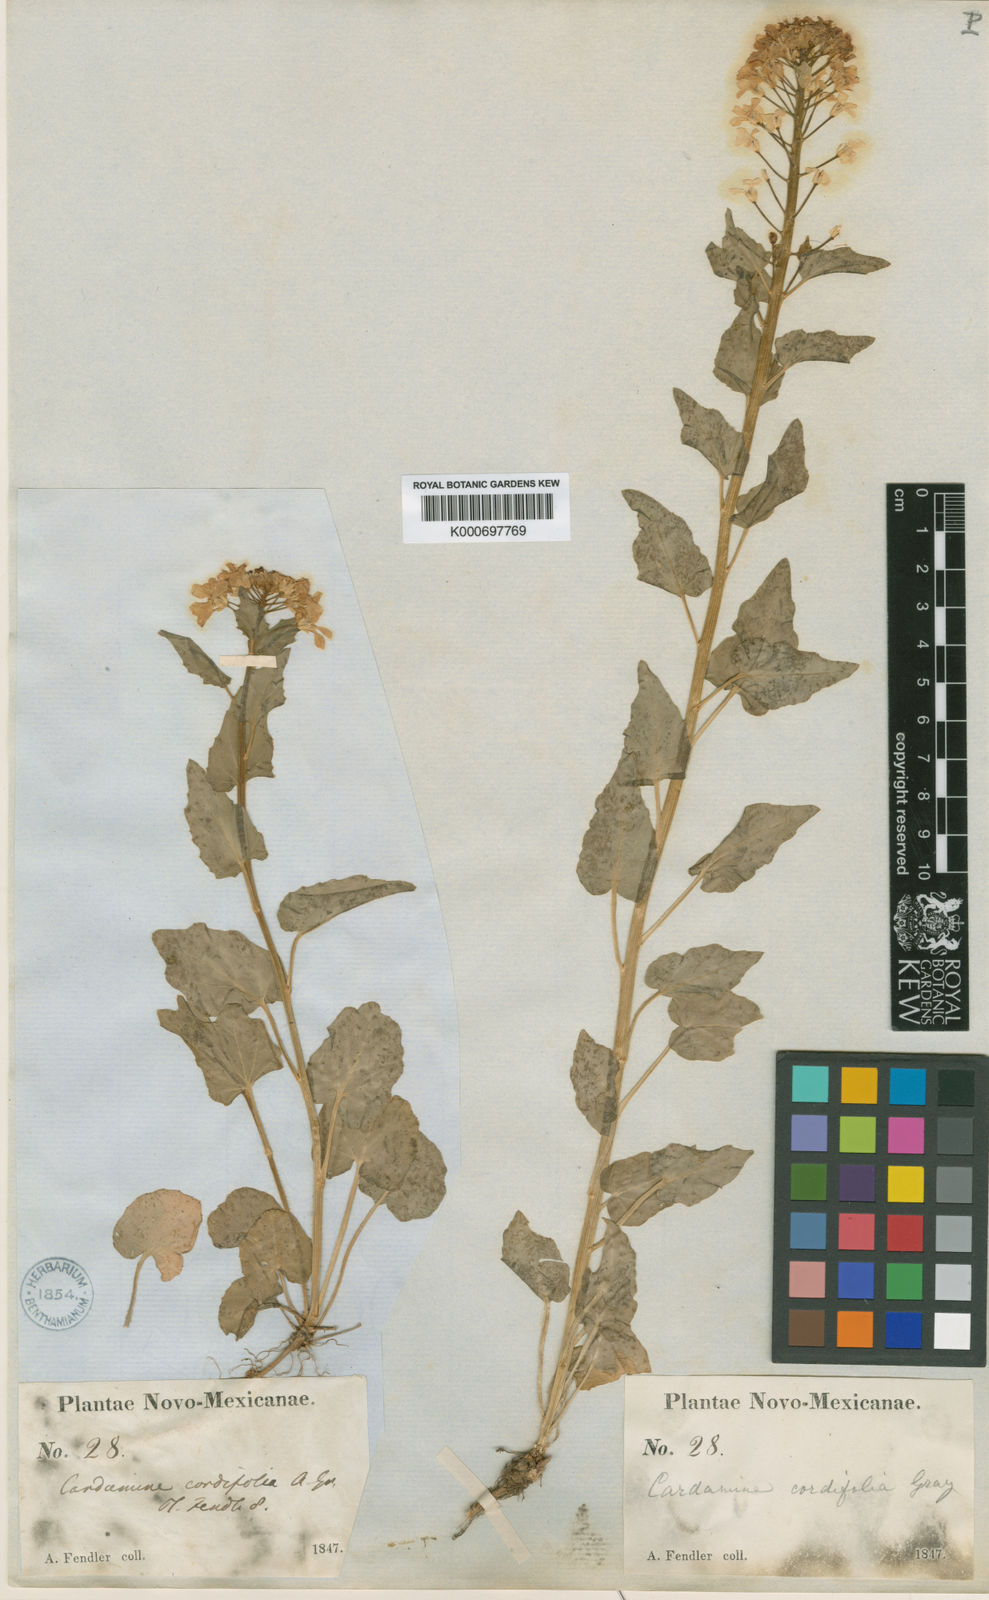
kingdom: Plantae
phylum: Tracheophyta
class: Magnoliopsida
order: Brassicales
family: Brassicaceae
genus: Cardamine
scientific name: Cardamine cordifolia
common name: Heart-leaf bittercress
